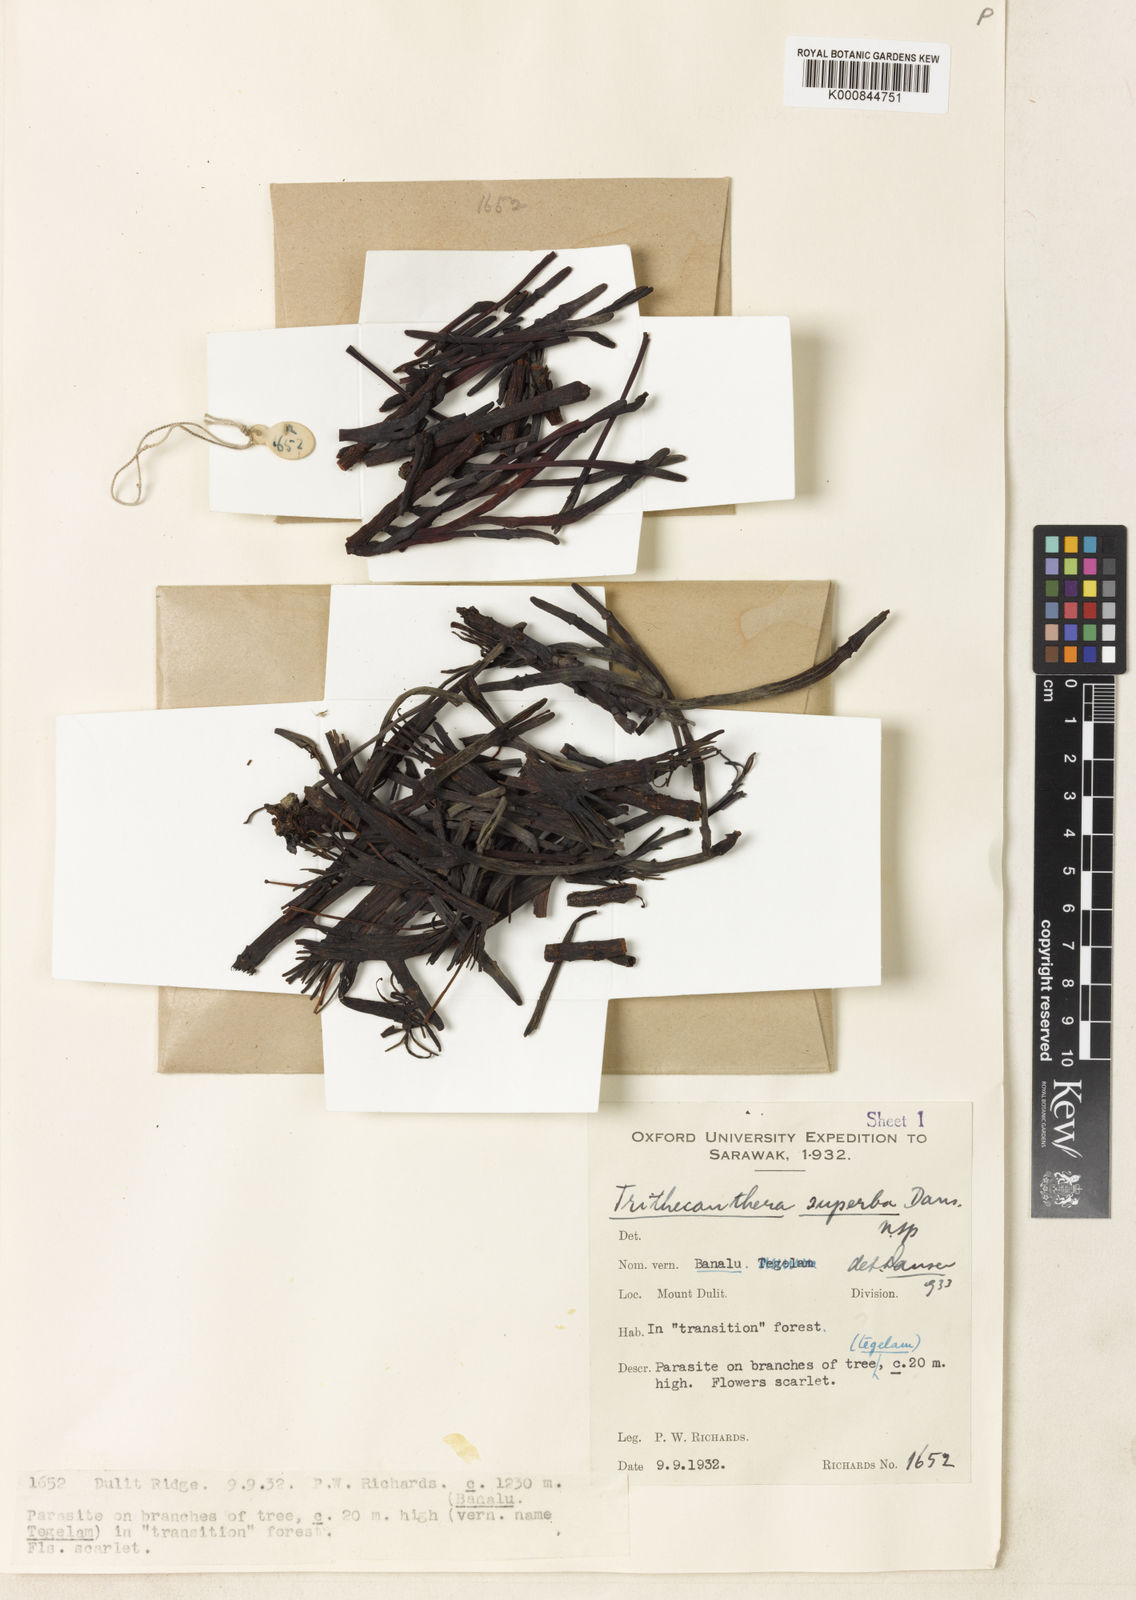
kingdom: Plantae
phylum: Tracheophyta
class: Magnoliopsida
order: Santalales
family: Loranthaceae
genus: Trithecanthera
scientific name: Trithecanthera superba
